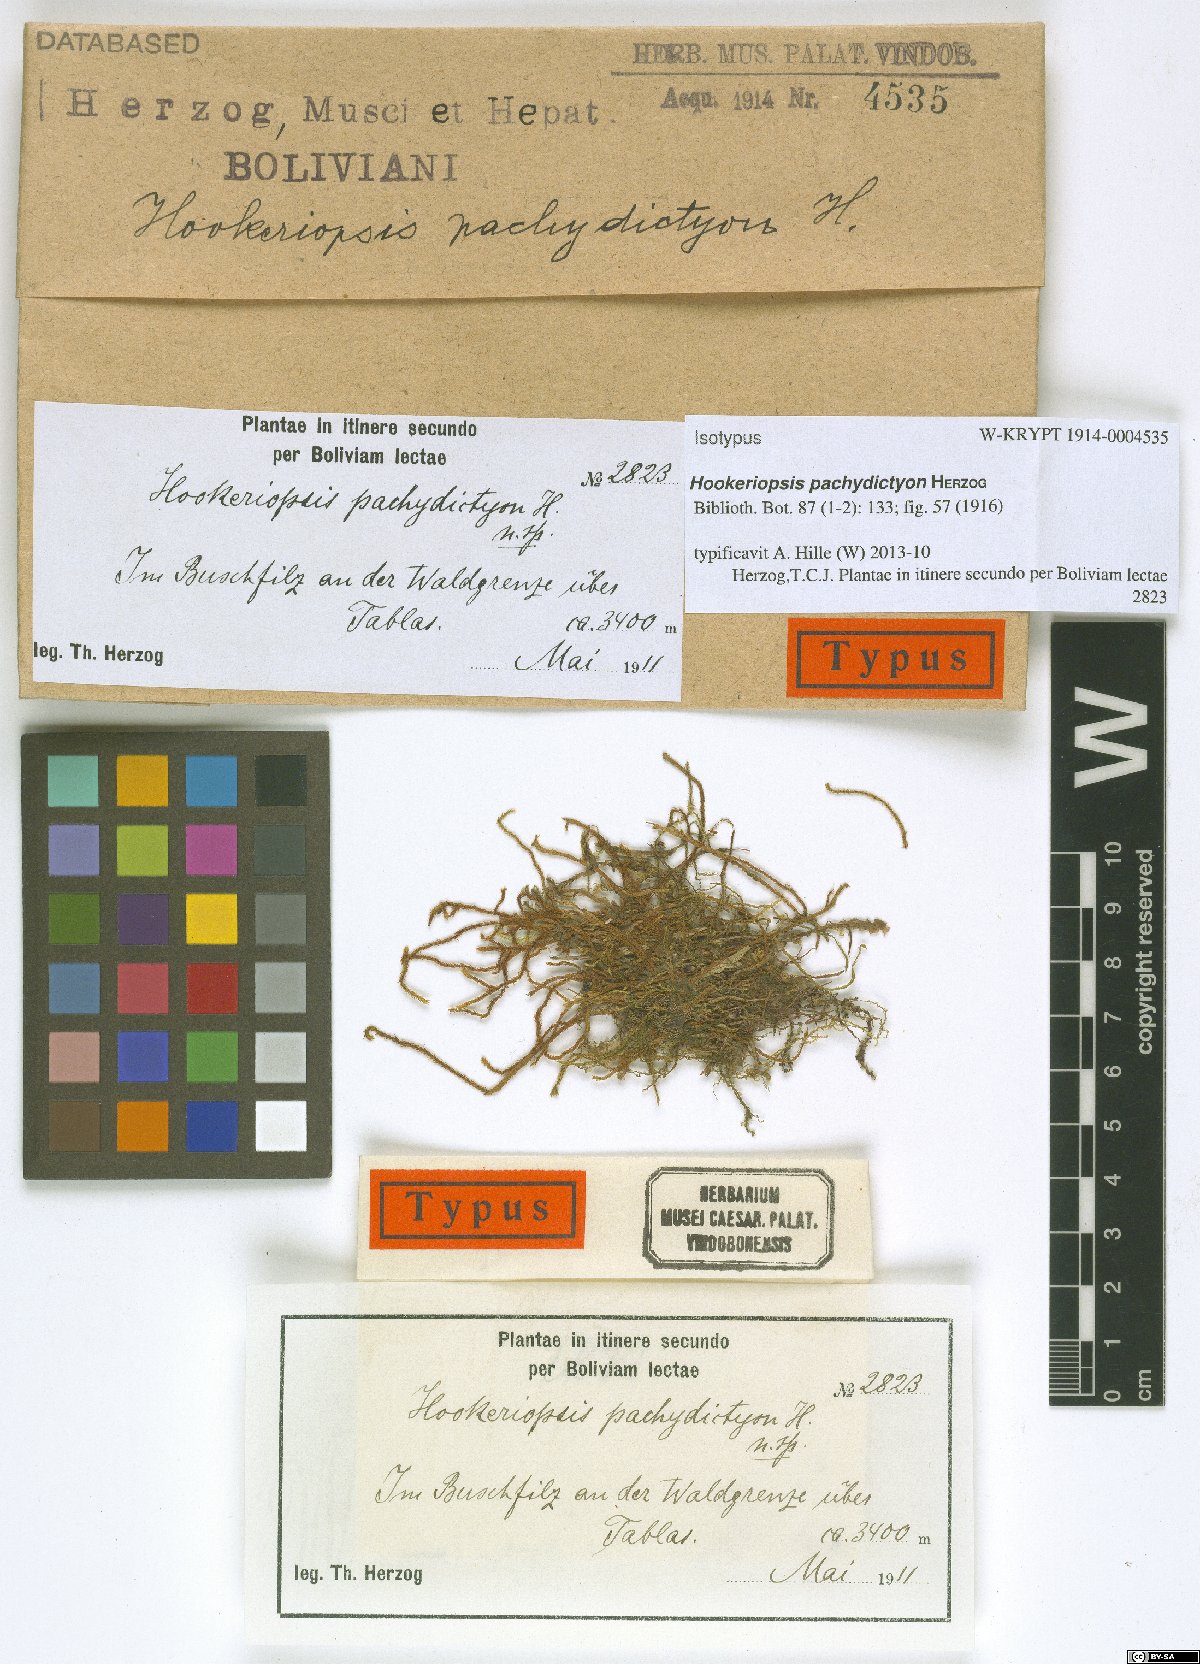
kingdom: Plantae
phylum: Bryophyta
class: Bryopsida
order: Hookeriales
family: Pilotrichaceae
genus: Thamniopsis
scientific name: Thamniopsis sinuata
